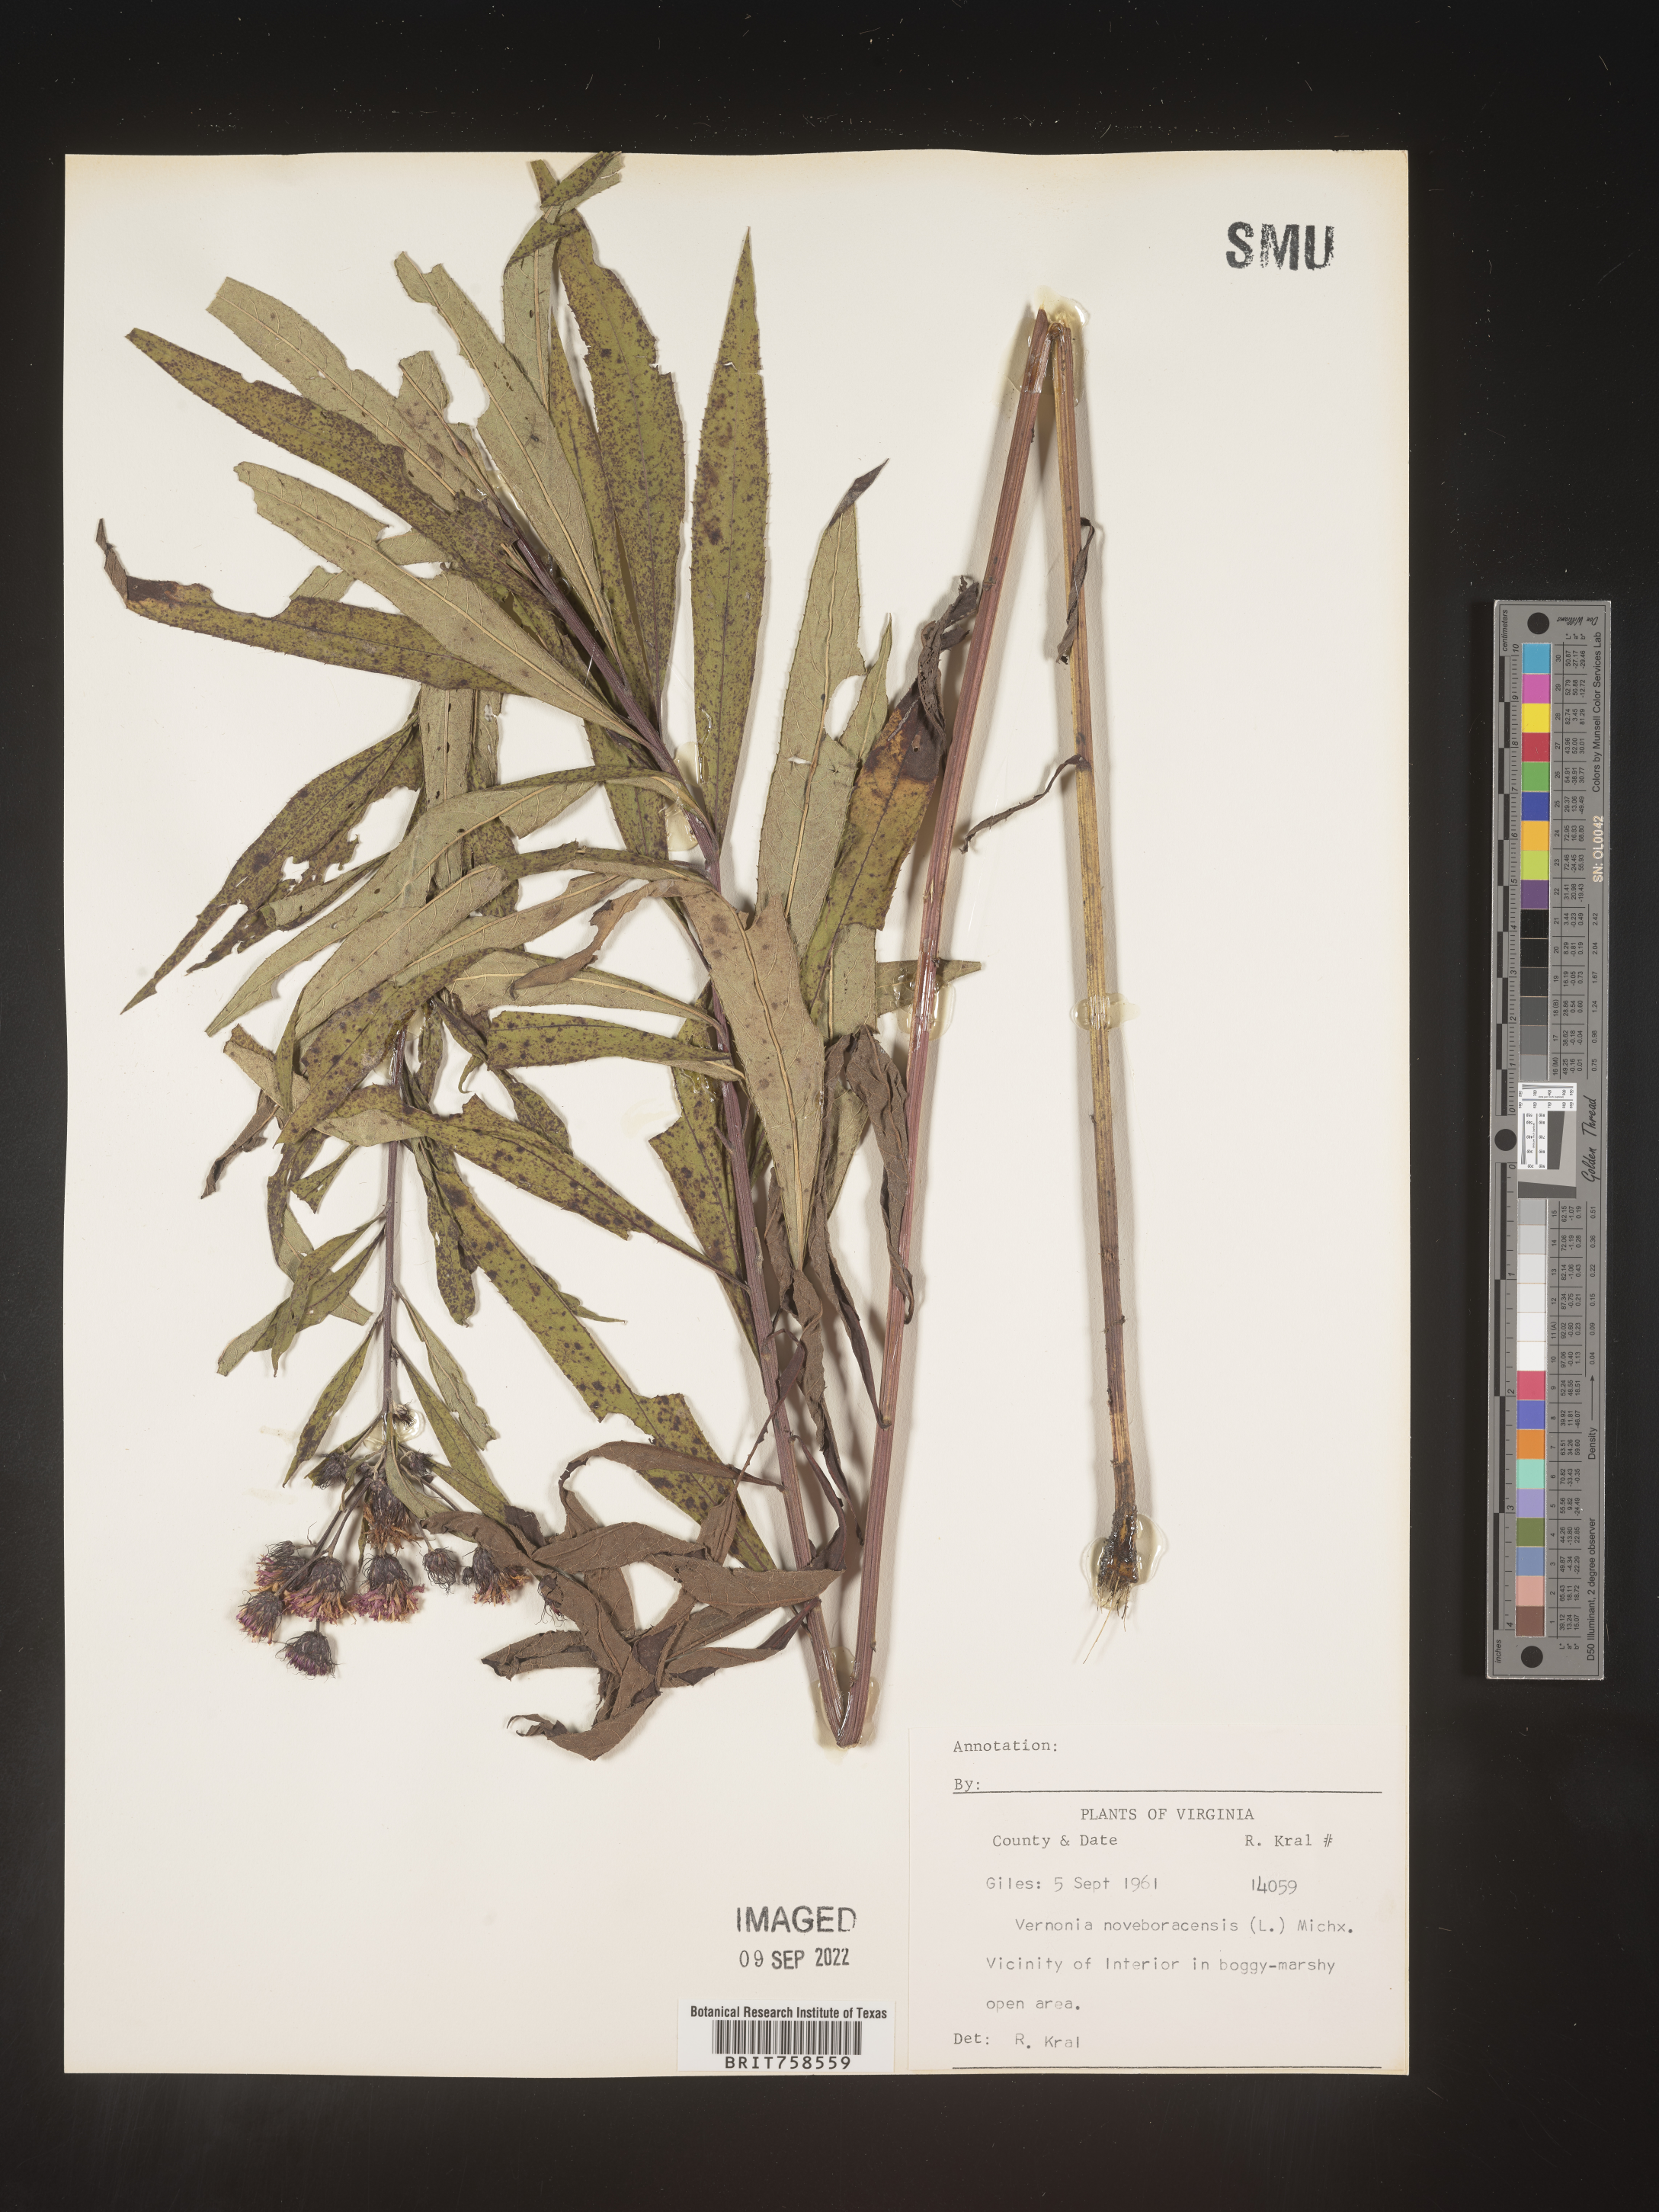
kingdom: Plantae
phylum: Tracheophyta
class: Magnoliopsida
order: Asterales
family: Asteraceae
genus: Vernonia
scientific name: Vernonia noveboracensis
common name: New york ironweed
